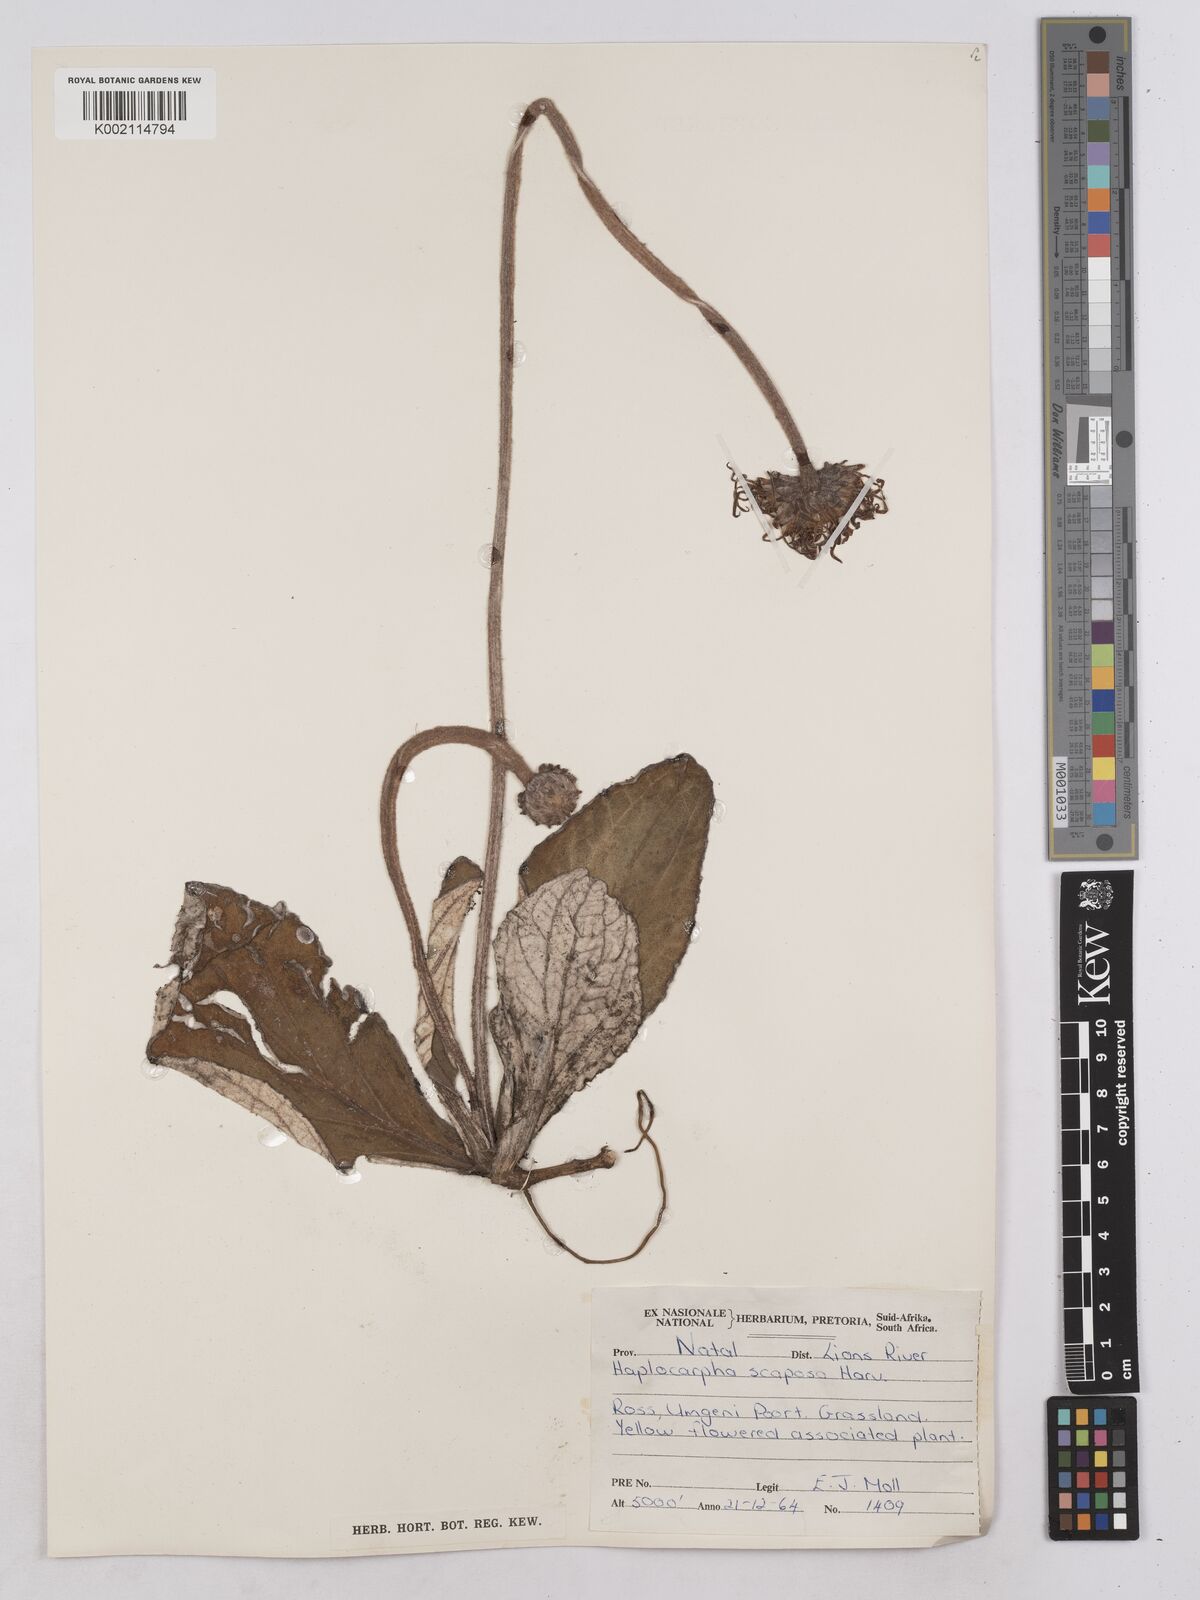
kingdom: Plantae
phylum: Tracheophyta
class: Magnoliopsida
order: Asterales
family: Asteraceae
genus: Haplocarpha
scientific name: Haplocarpha scaposa
